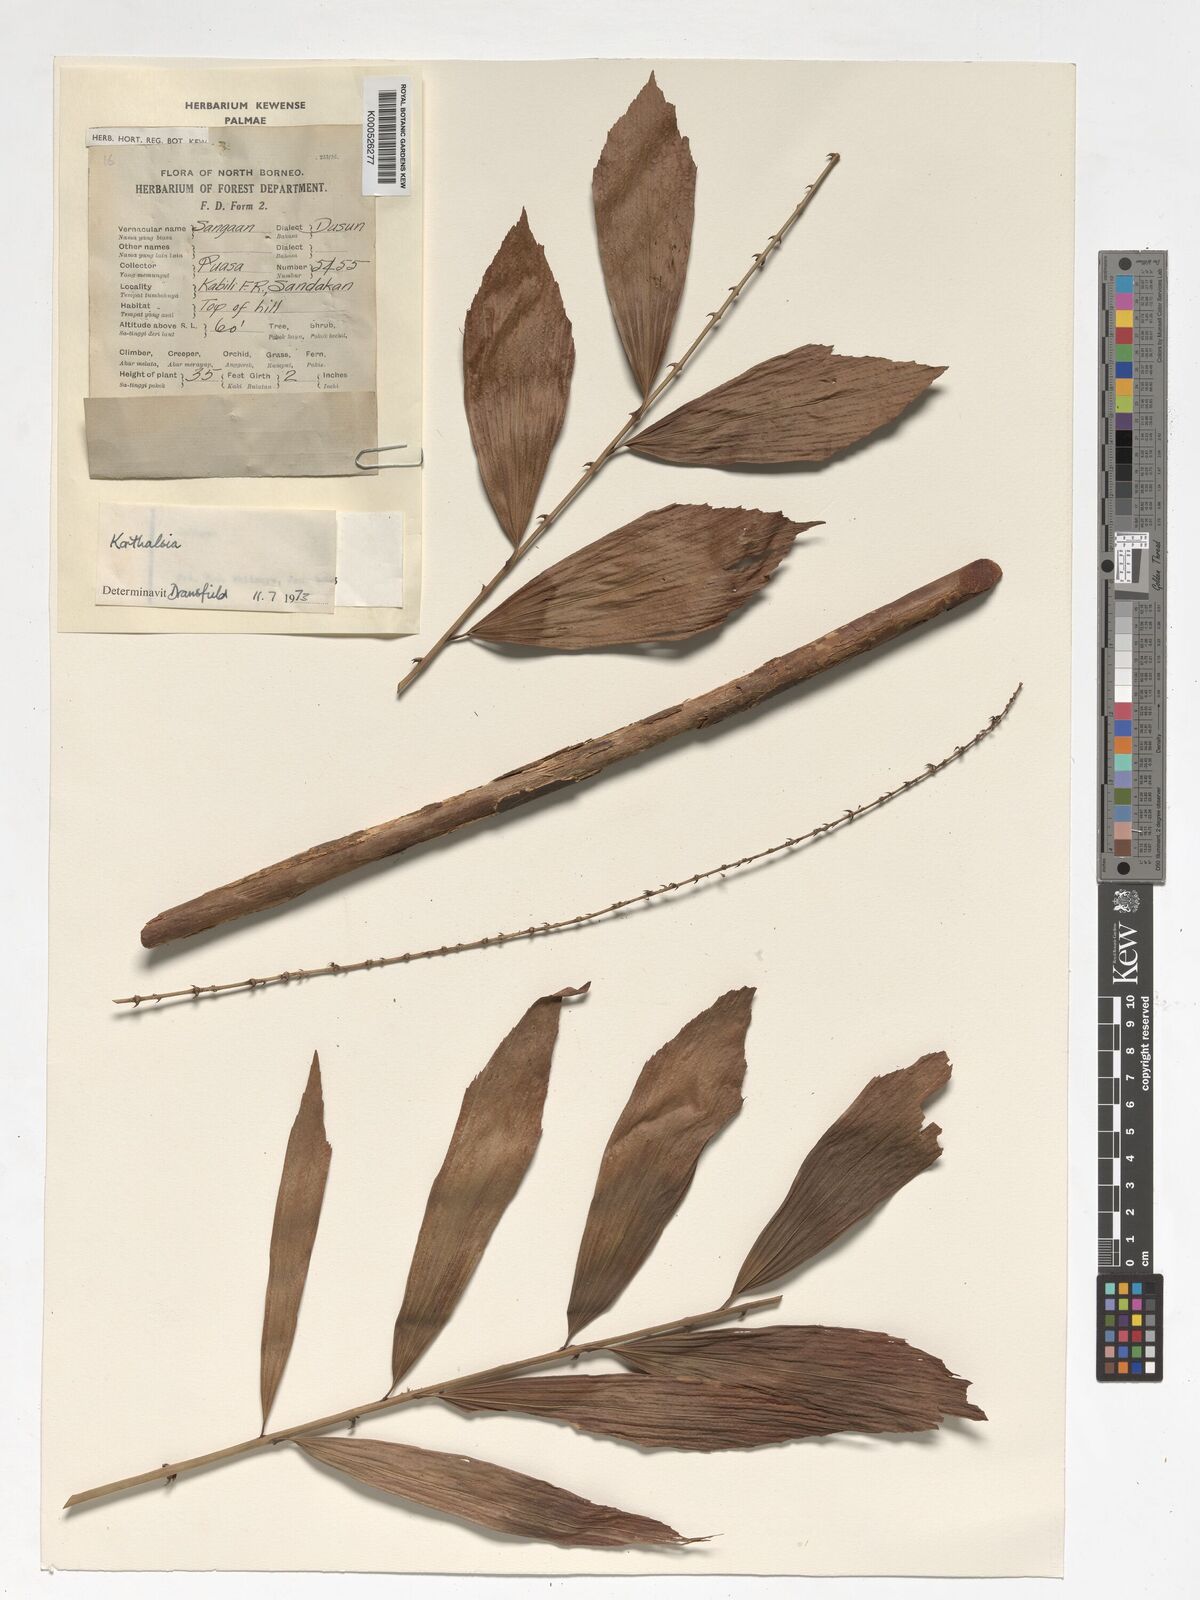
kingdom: Plantae
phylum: Tracheophyta
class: Liliopsida
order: Arecales
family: Arecaceae
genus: Korthalsia
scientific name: Korthalsia
